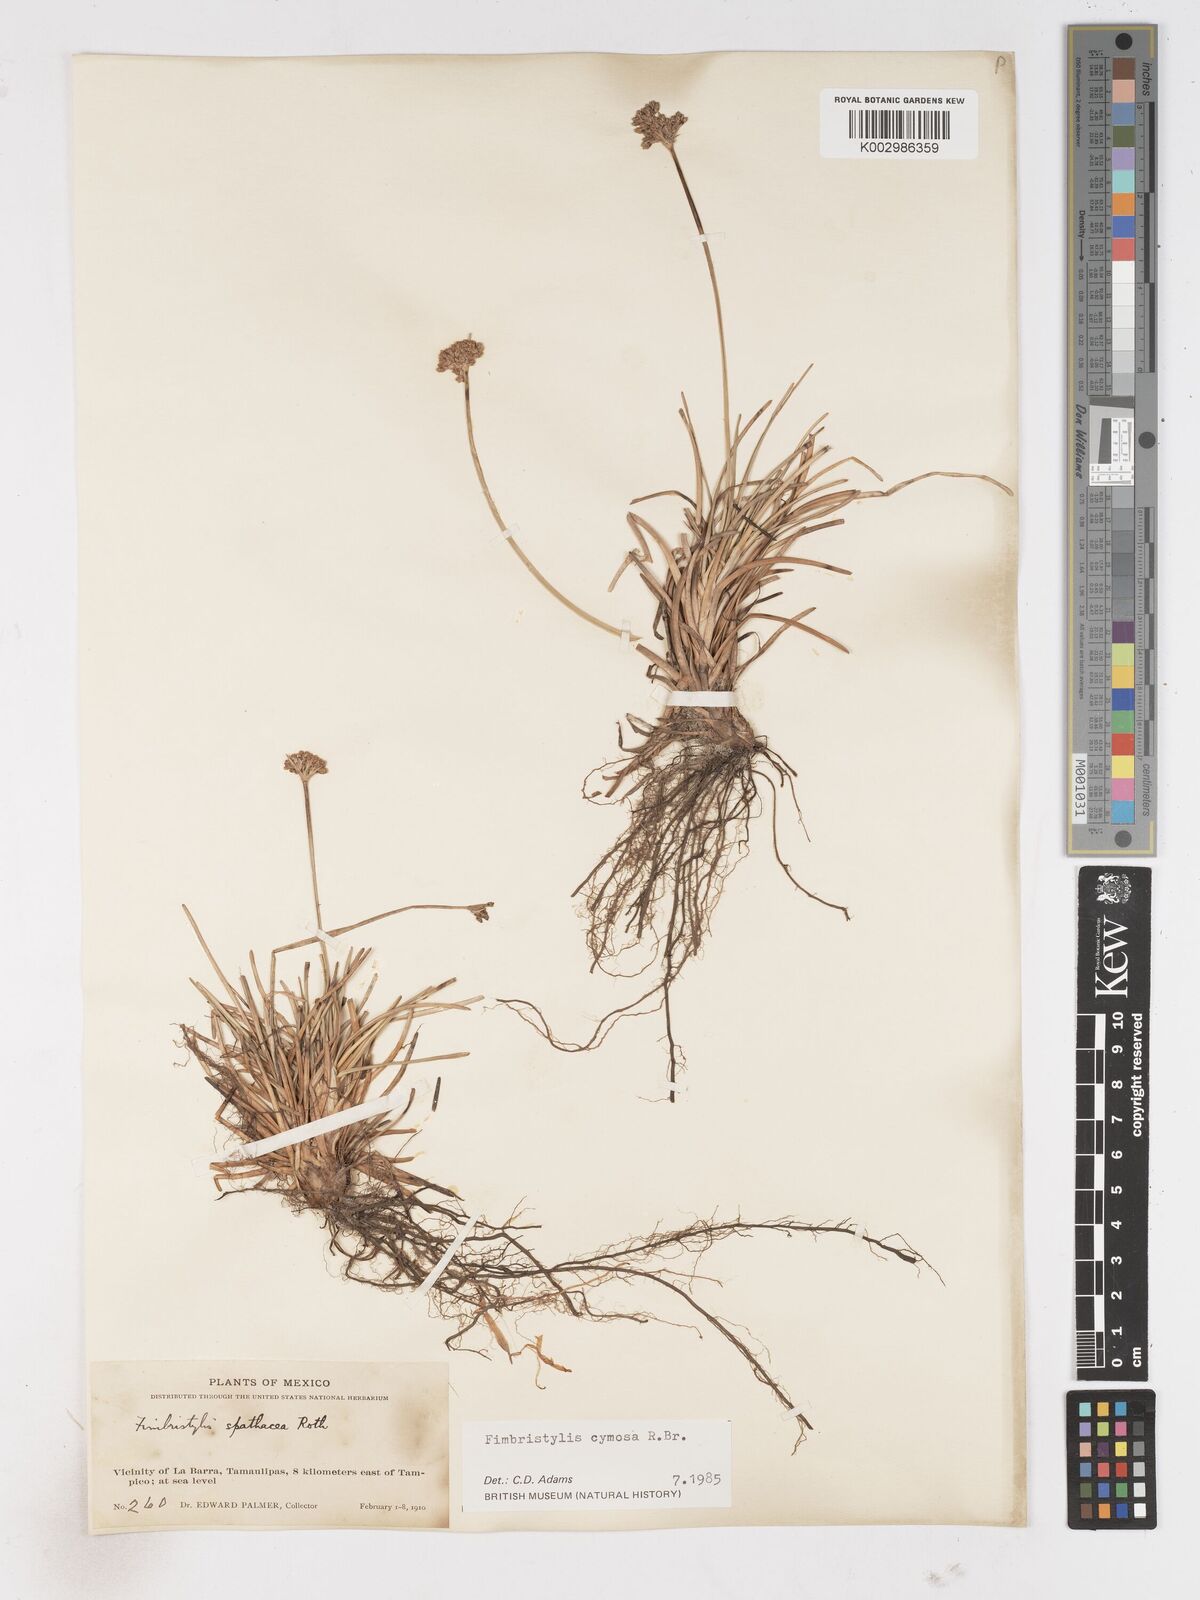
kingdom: Plantae
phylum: Tracheophyta
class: Liliopsida
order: Poales
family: Cyperaceae
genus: Fimbristylis
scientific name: Fimbristylis cymosa
